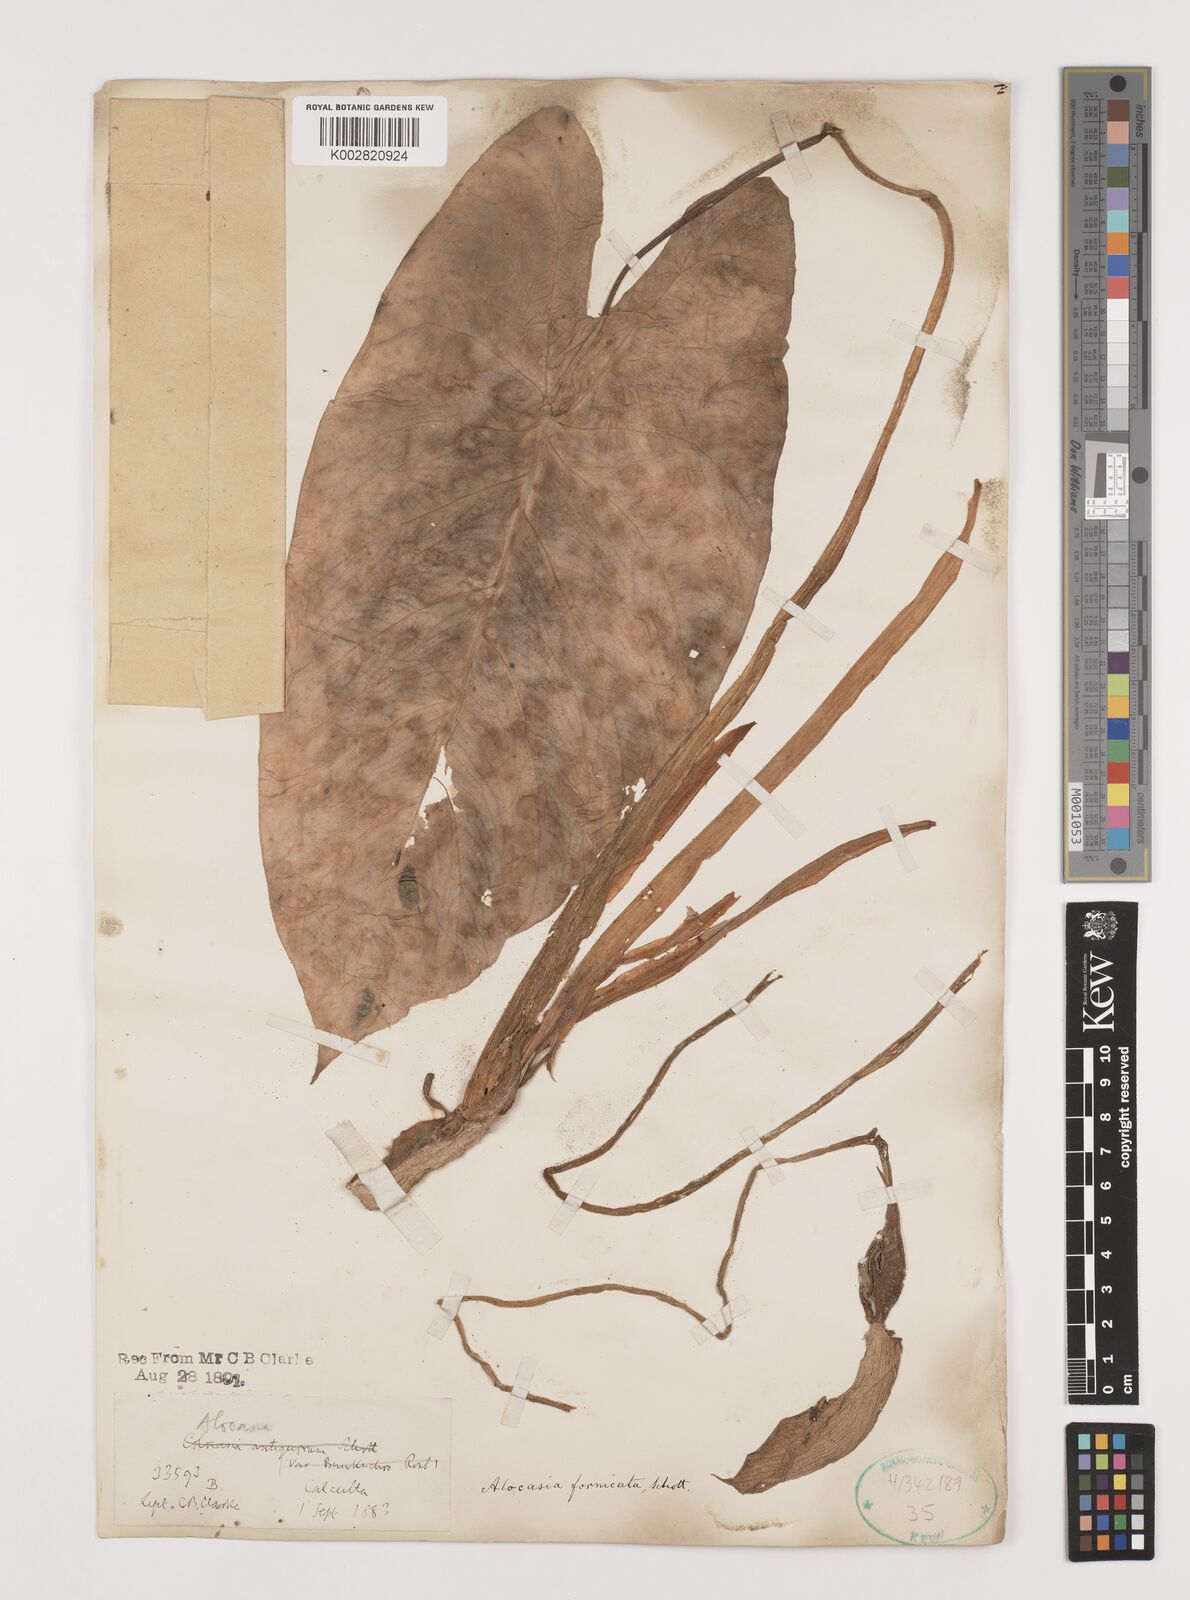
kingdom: Plantae
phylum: Tracheophyta
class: Liliopsida
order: Alismatales
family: Araceae
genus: Alocasia
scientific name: Alocasia fornicata
